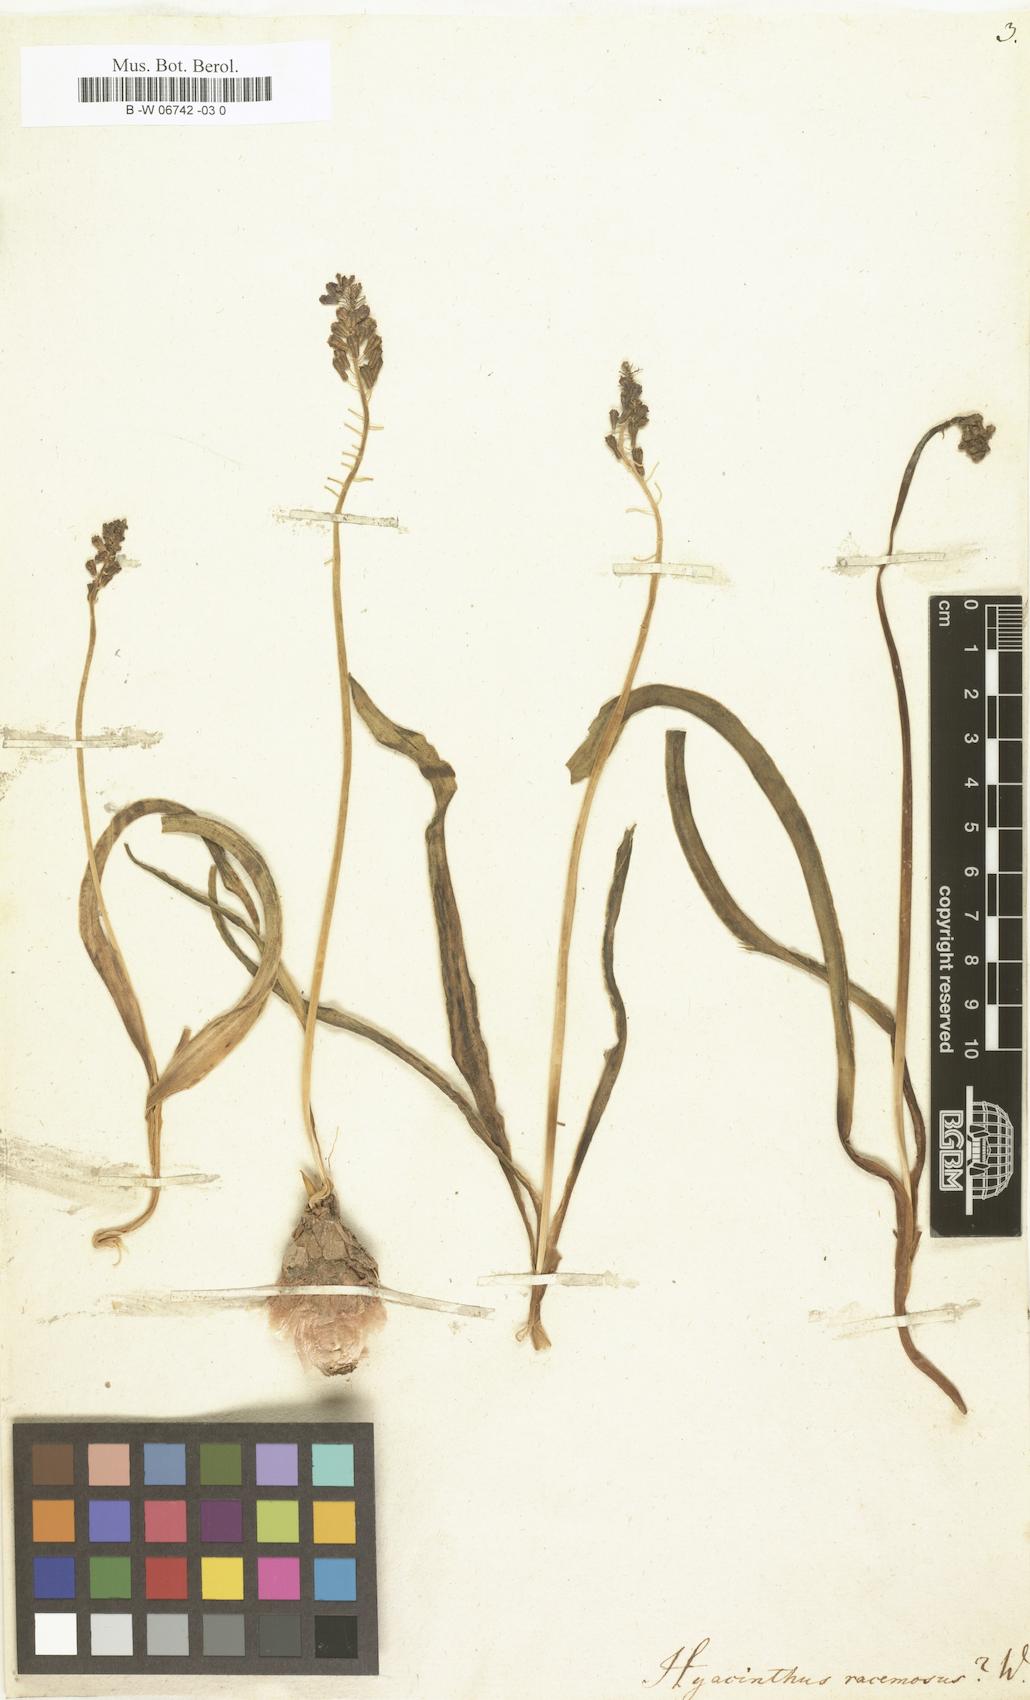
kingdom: Plantae
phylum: Tracheophyta
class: Liliopsida
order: Asparagales
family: Asparagaceae
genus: Muscari
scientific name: Muscari neglectum
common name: Grape-hyacinth
